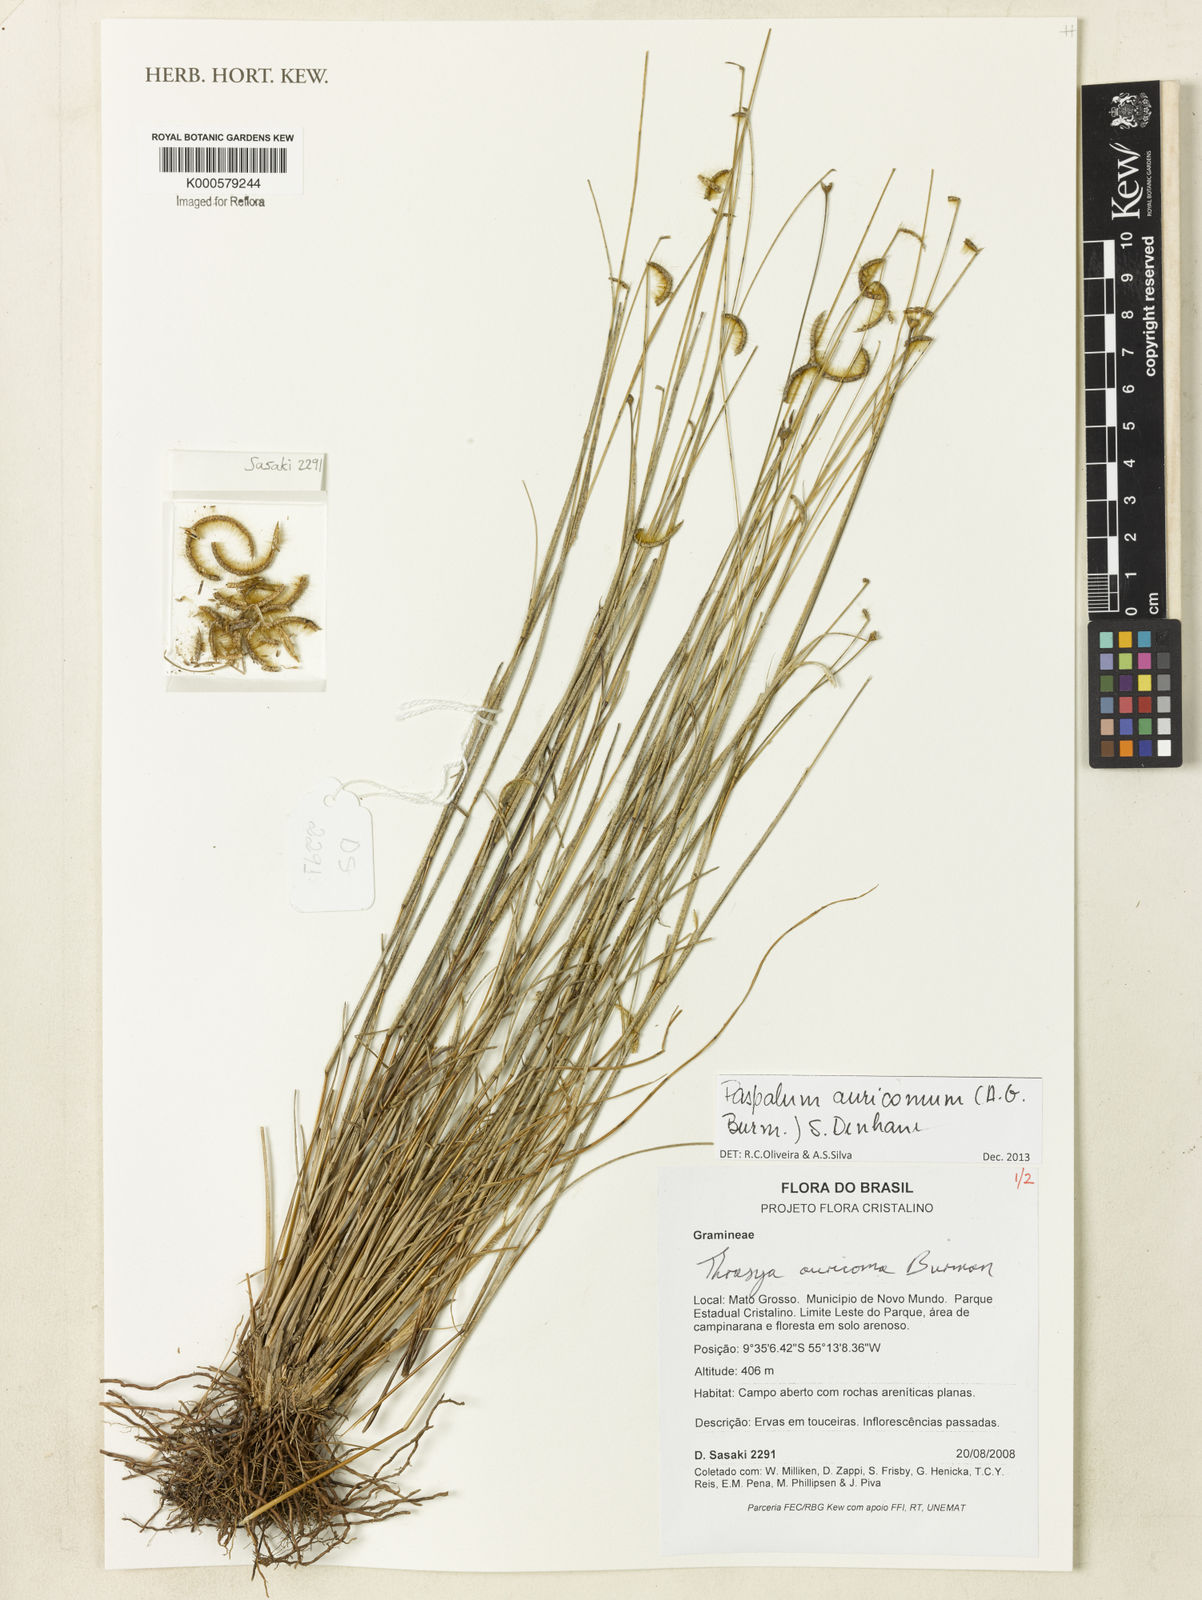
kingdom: Plantae
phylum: Tracheophyta
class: Liliopsida
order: Poales
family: Poaceae
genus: Paspalum
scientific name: Paspalum auricomum
